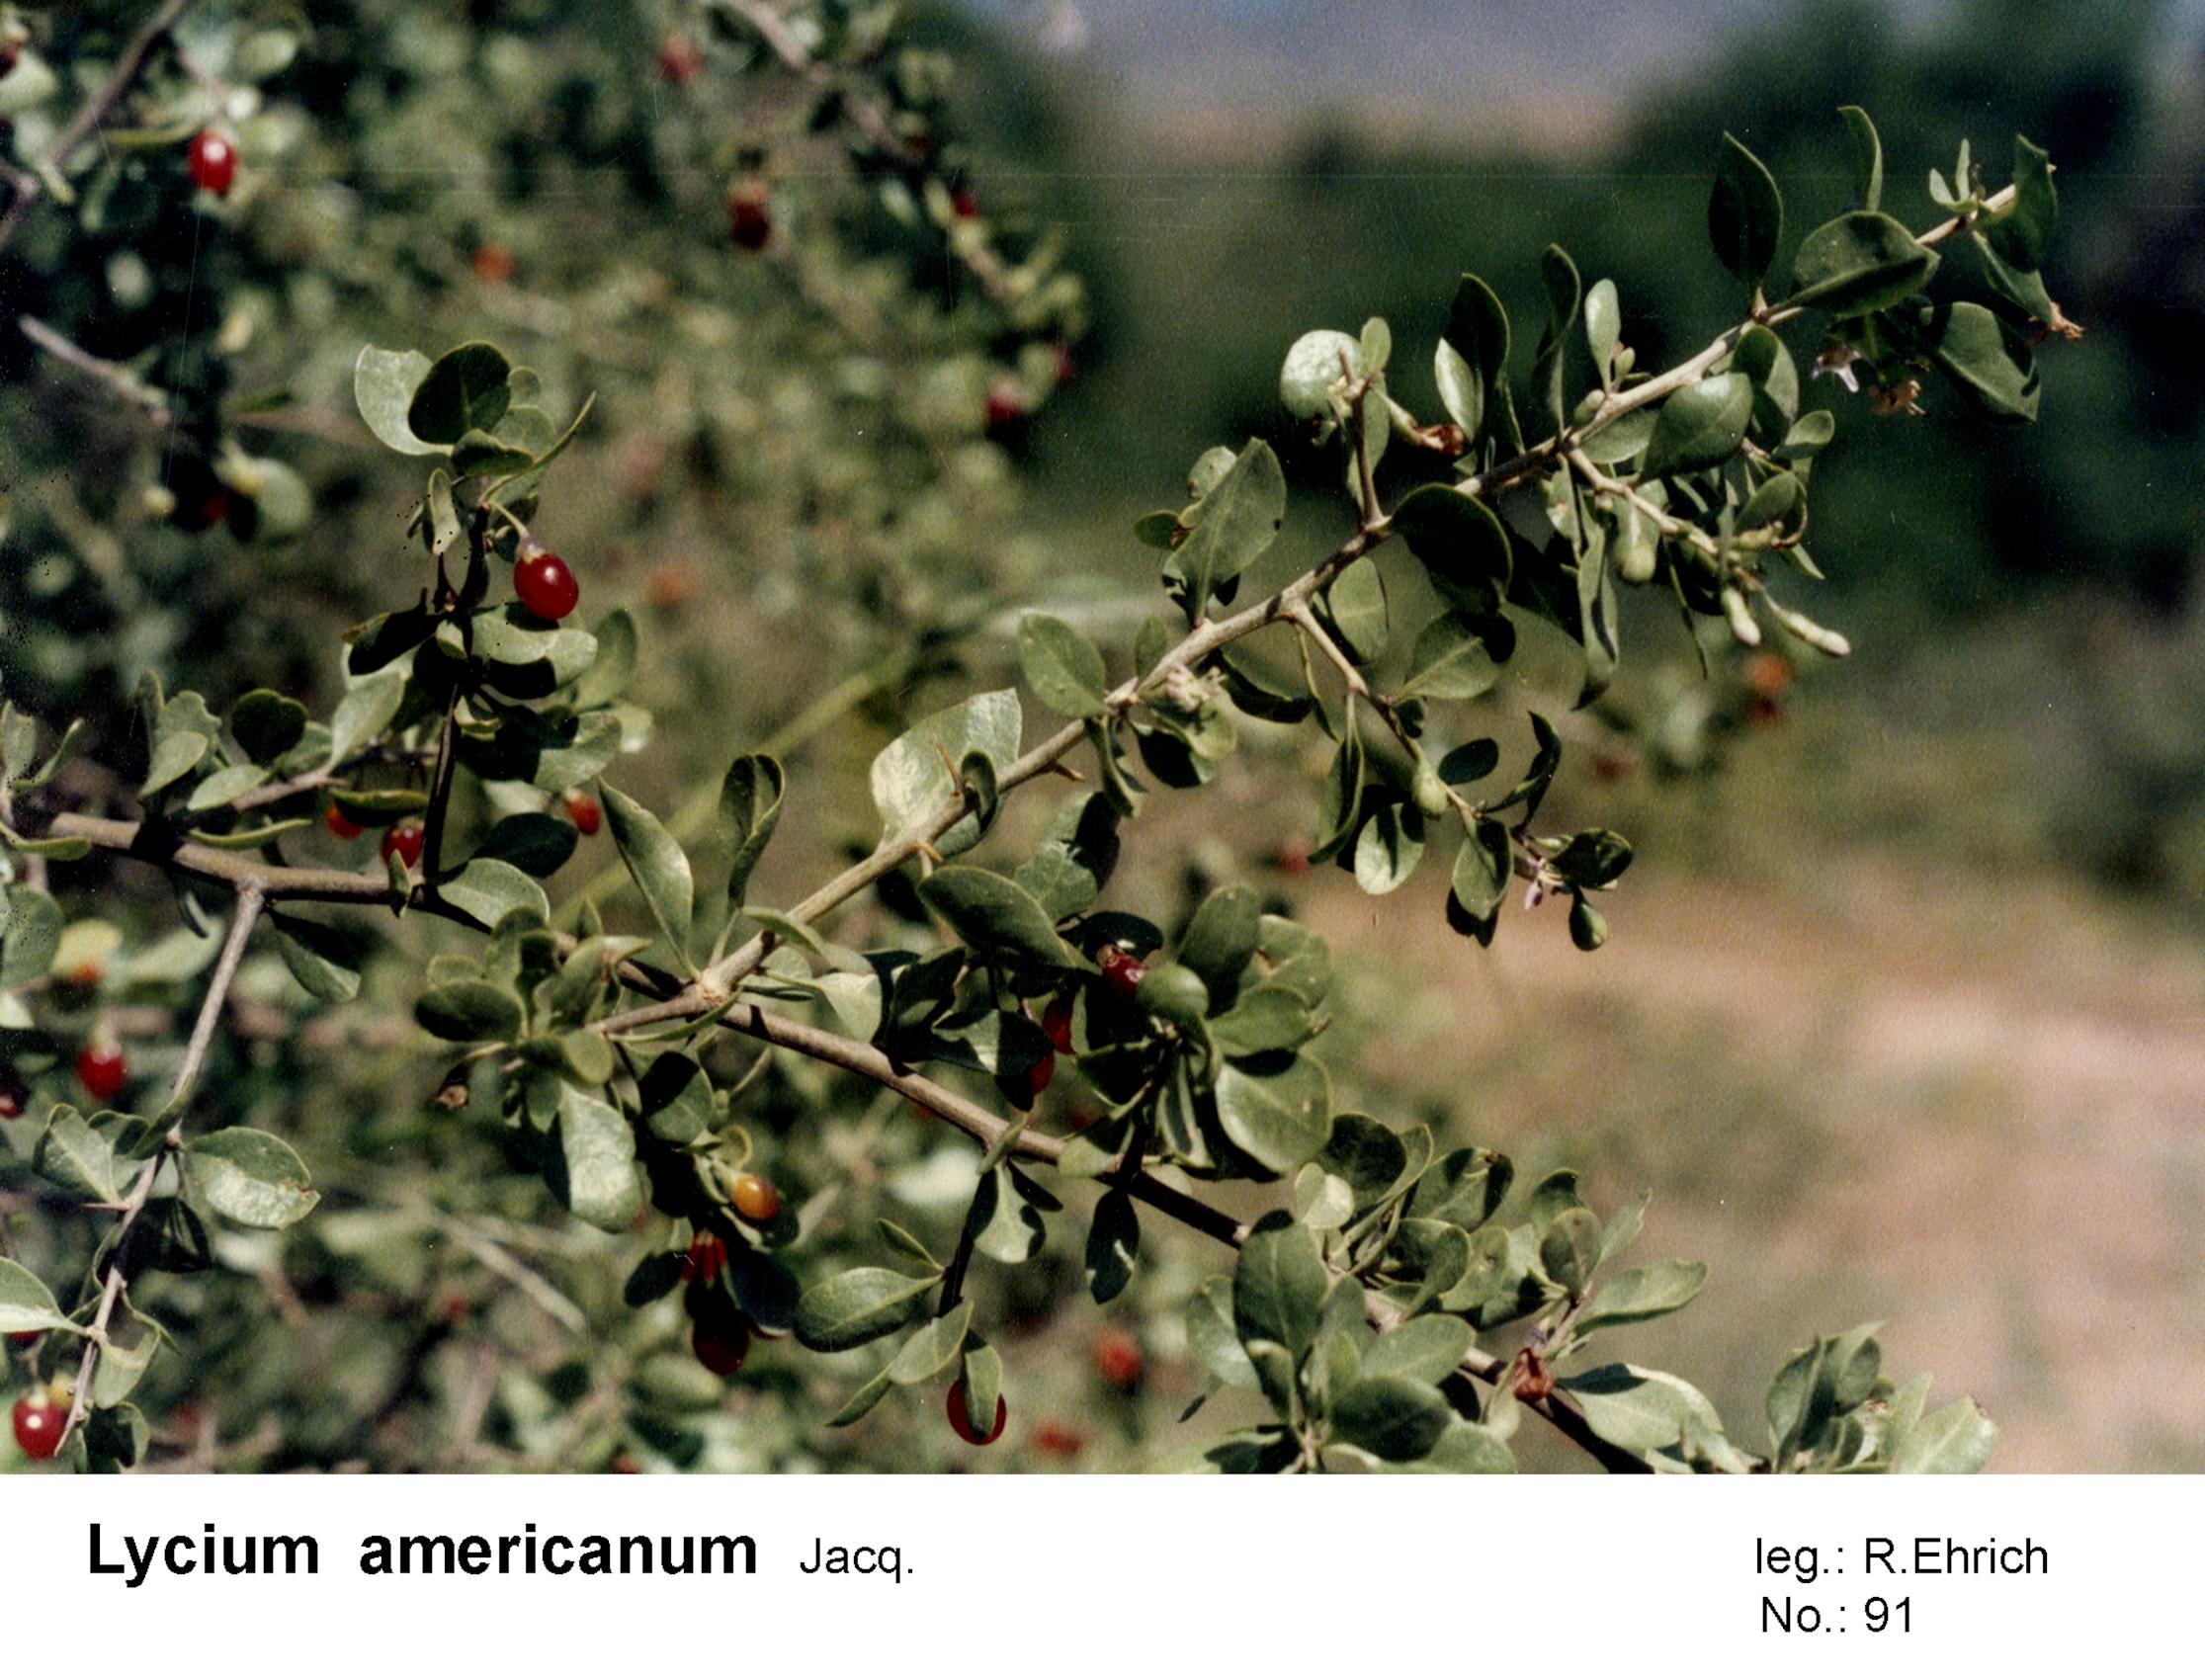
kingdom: Plantae
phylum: Tracheophyta
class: Magnoliopsida
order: Solanales
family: Solanaceae
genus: Lycium
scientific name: Lycium americanum
